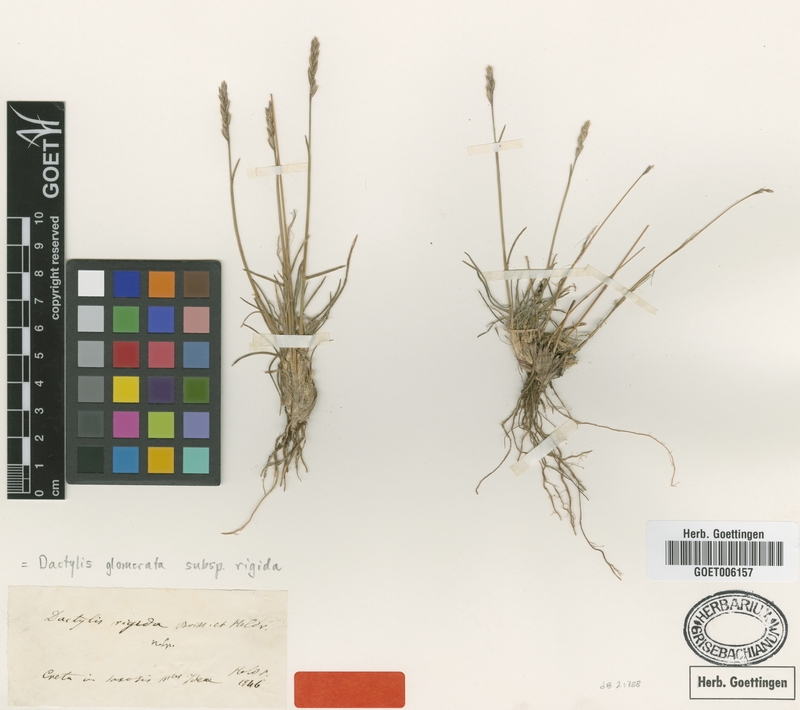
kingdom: Plantae
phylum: Tracheophyta
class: Liliopsida
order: Poales
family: Poaceae
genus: Dactylis
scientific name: Dactylis glomerata
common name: Orchardgrass
